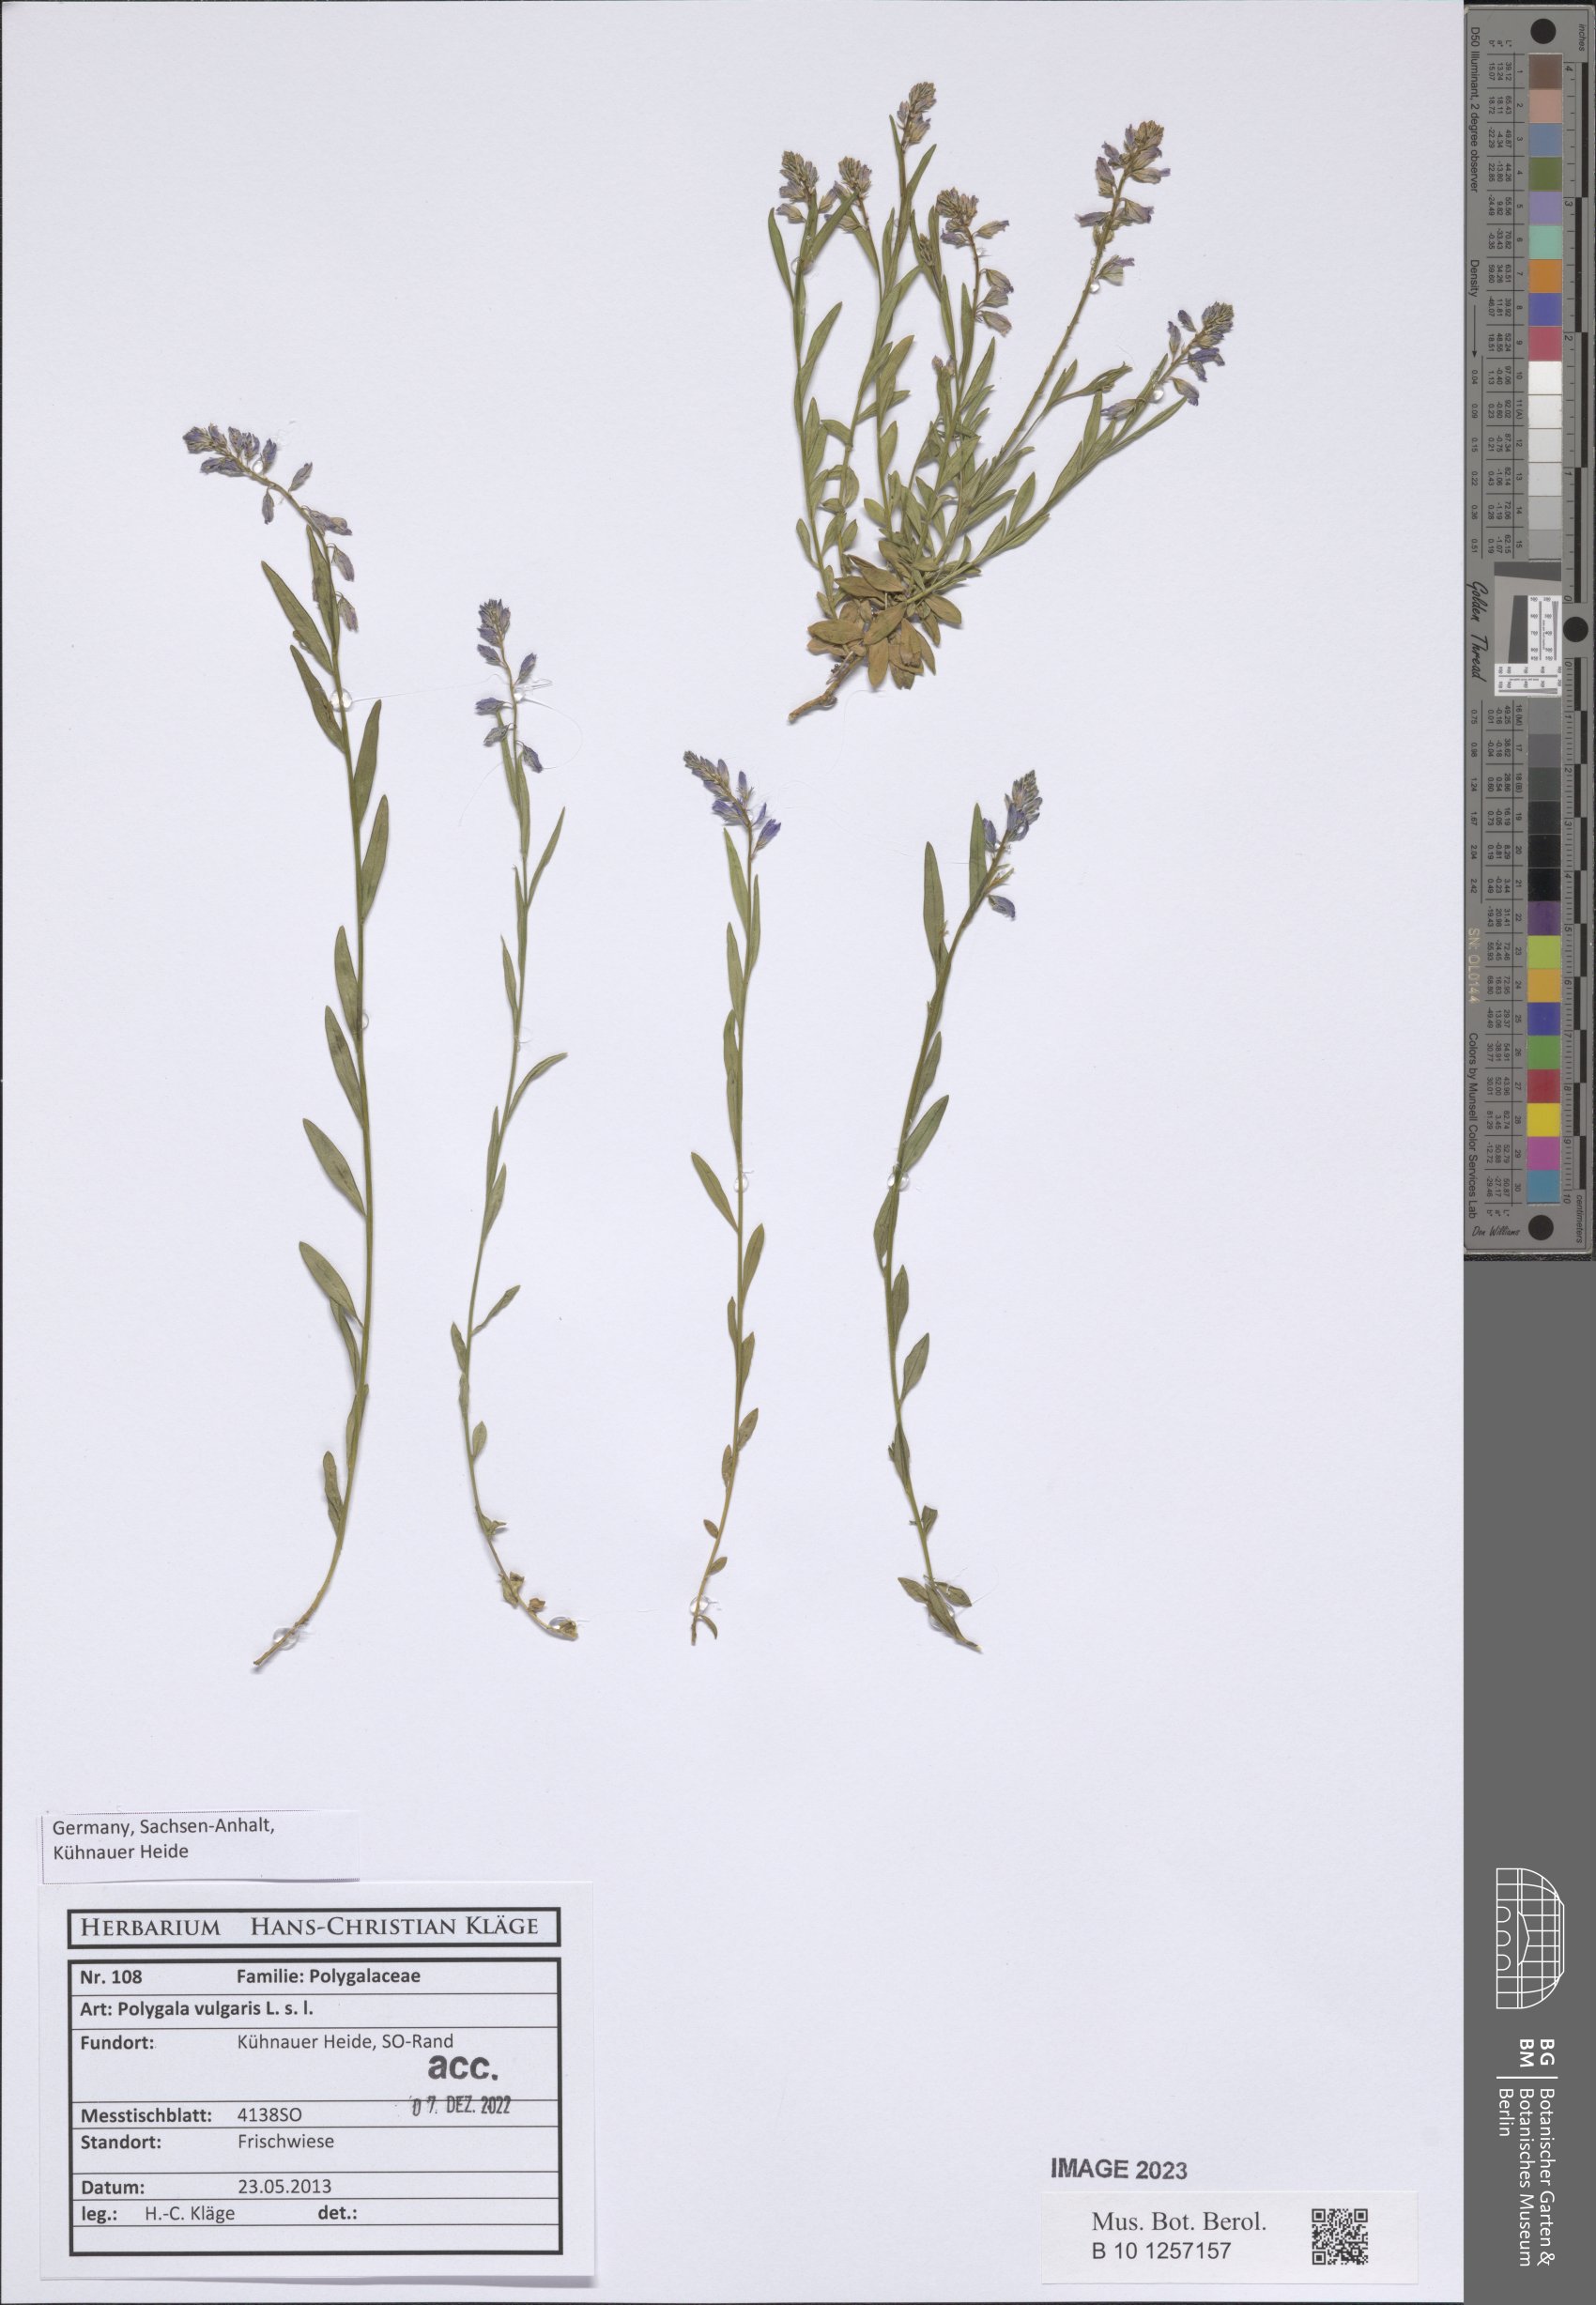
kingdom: Plantae
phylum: Tracheophyta
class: Magnoliopsida
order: Fabales
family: Polygalaceae
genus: Polygala
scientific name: Polygala vulgaris
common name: Common milkwort
